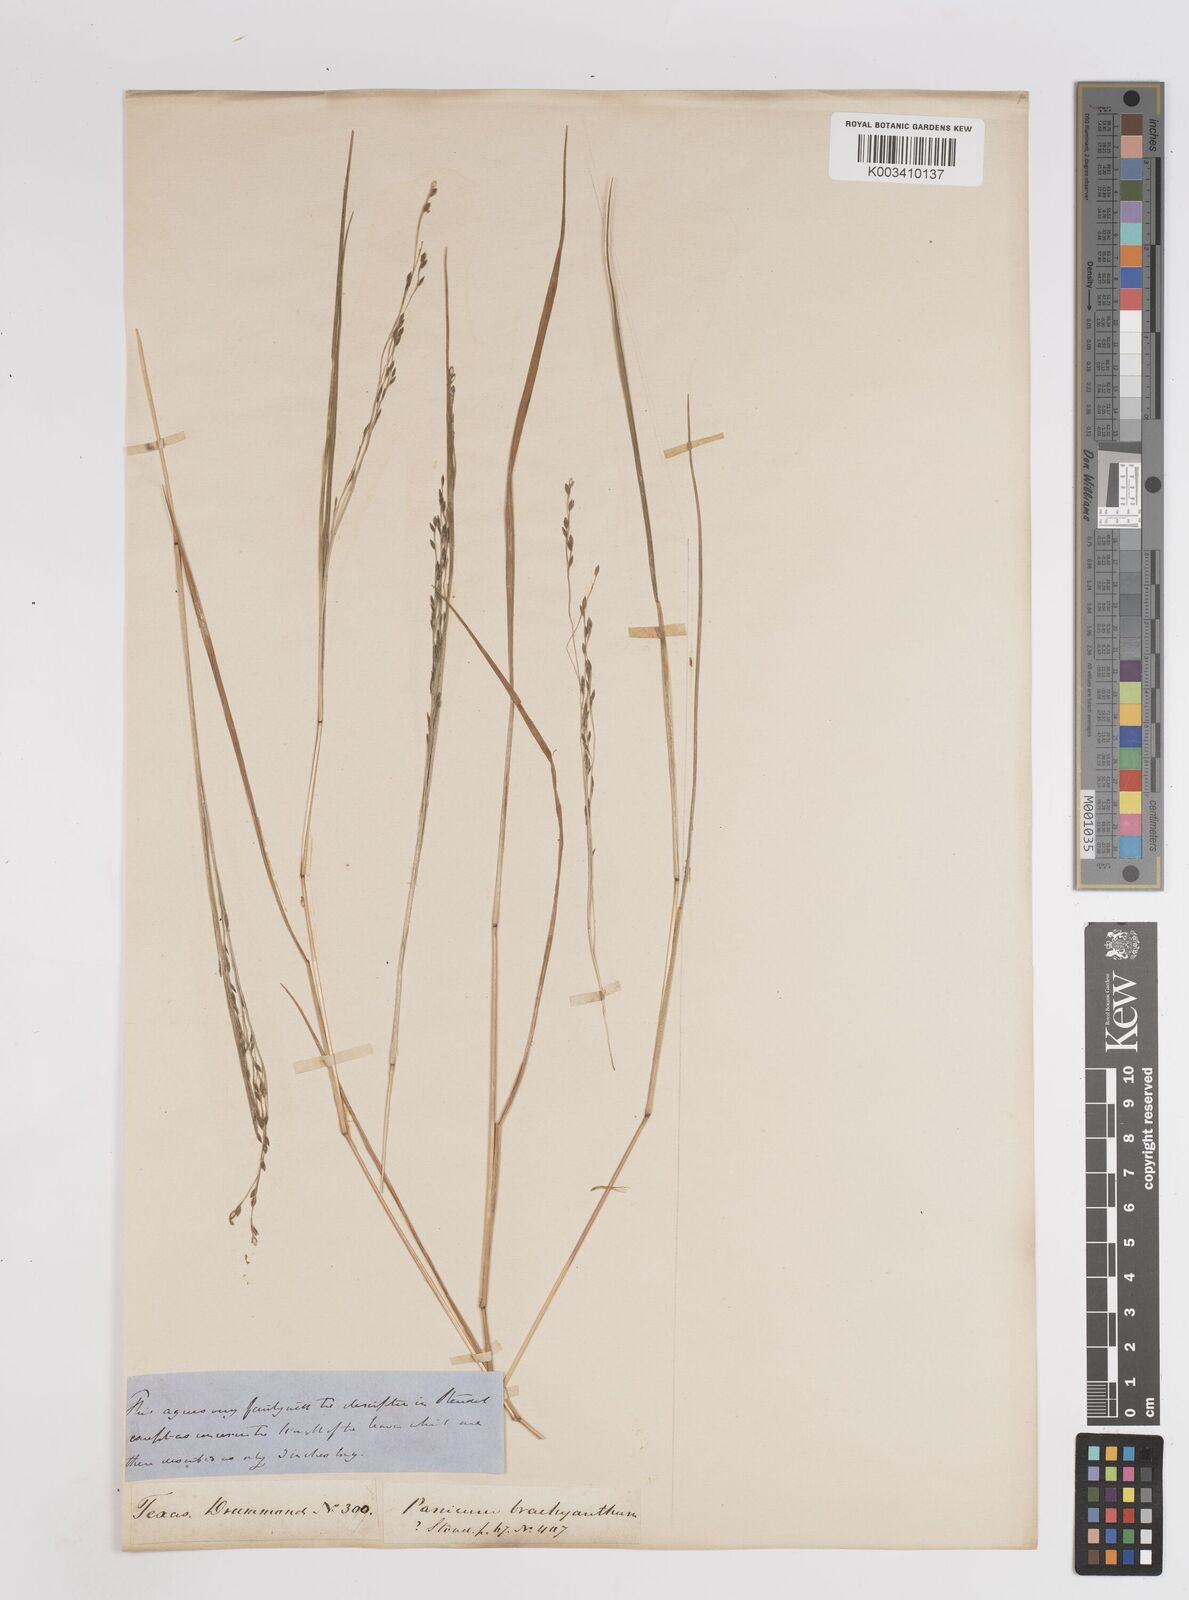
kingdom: Plantae
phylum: Tracheophyta
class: Liliopsida
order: Poales
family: Poaceae
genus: Kellochloa
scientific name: Kellochloa brachyantha
